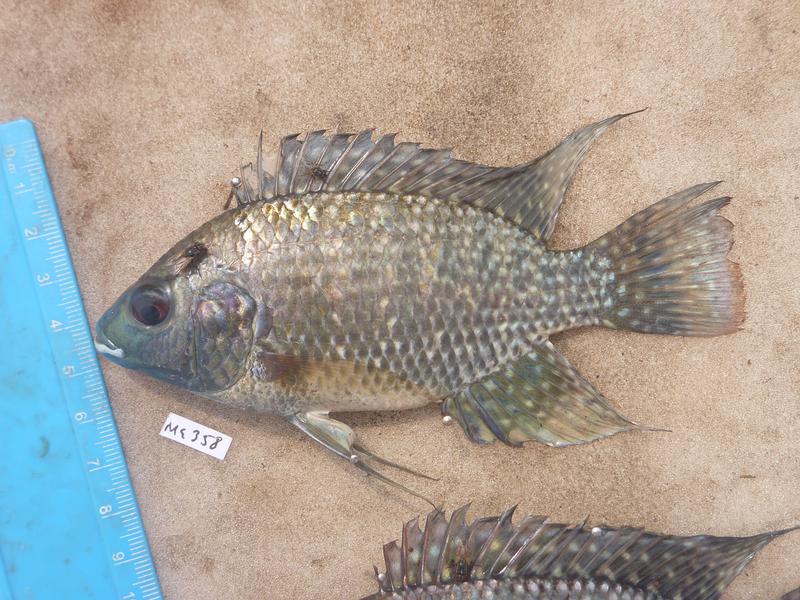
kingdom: Animalia
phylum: Chordata
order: Perciformes
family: Cichlidae
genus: Oreochromis
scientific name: Oreochromis leucostictus
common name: Blue spotted tilapia
